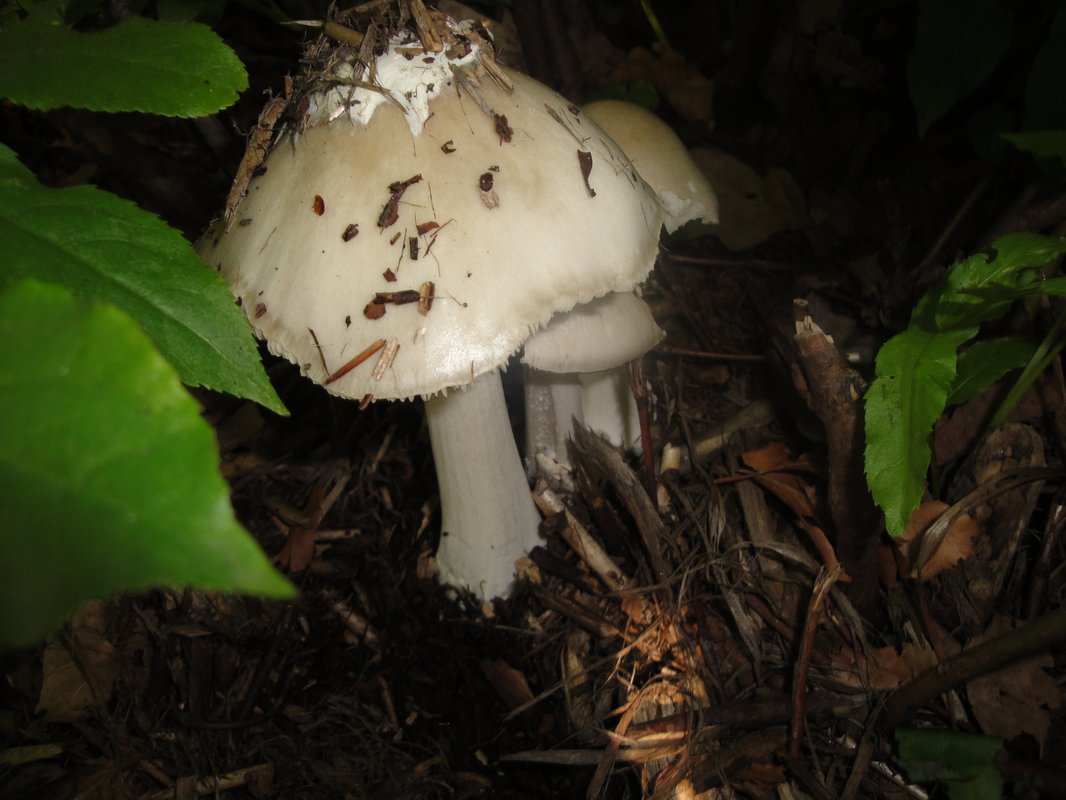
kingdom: Fungi
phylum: Basidiomycota
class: Agaricomycetes
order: Agaricales
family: Pluteaceae
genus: Volvopluteus
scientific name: Volvopluteus gloiocephalus
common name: høj posesvamp
